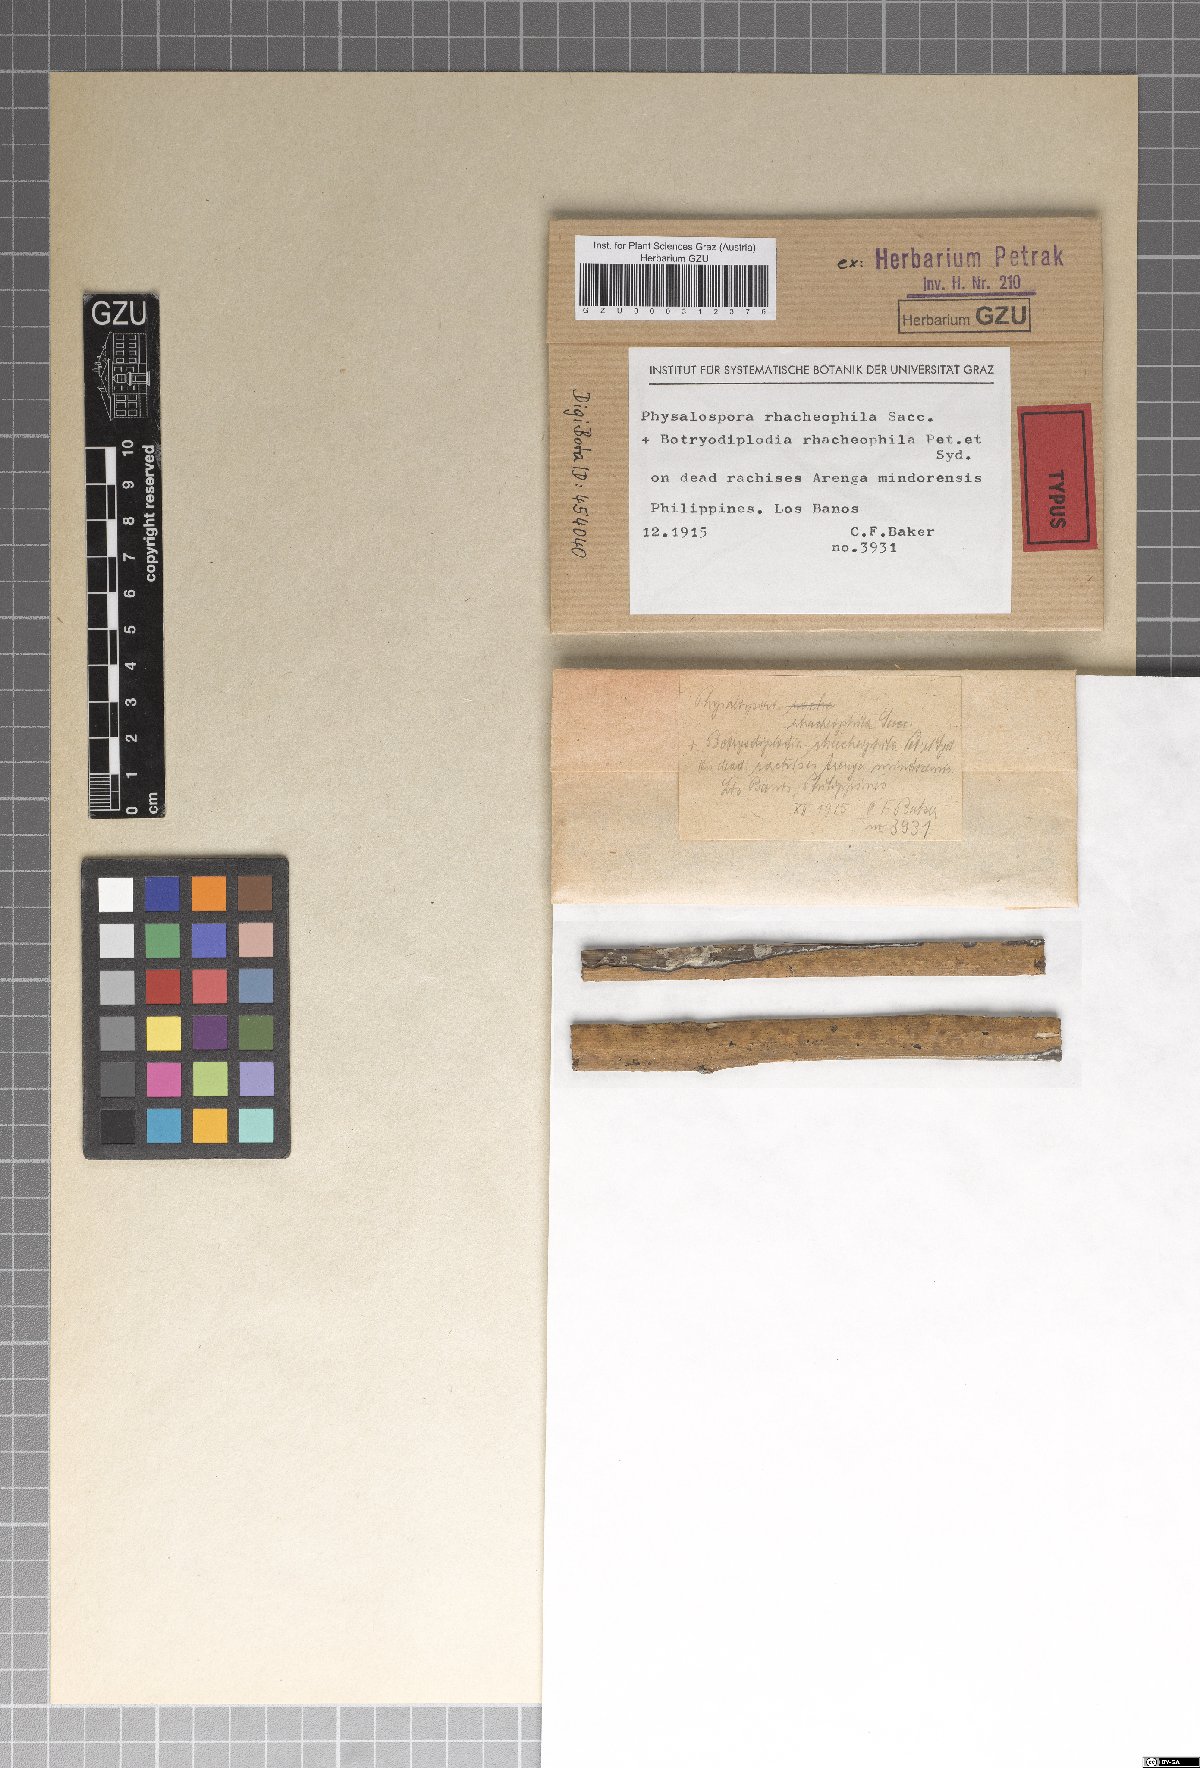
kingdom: Fungi
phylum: Ascomycota
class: Dothideomycetes
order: Botryosphaeriales
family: Botryosphaeriaceae
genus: Melanops
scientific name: Melanops rhacheophila
